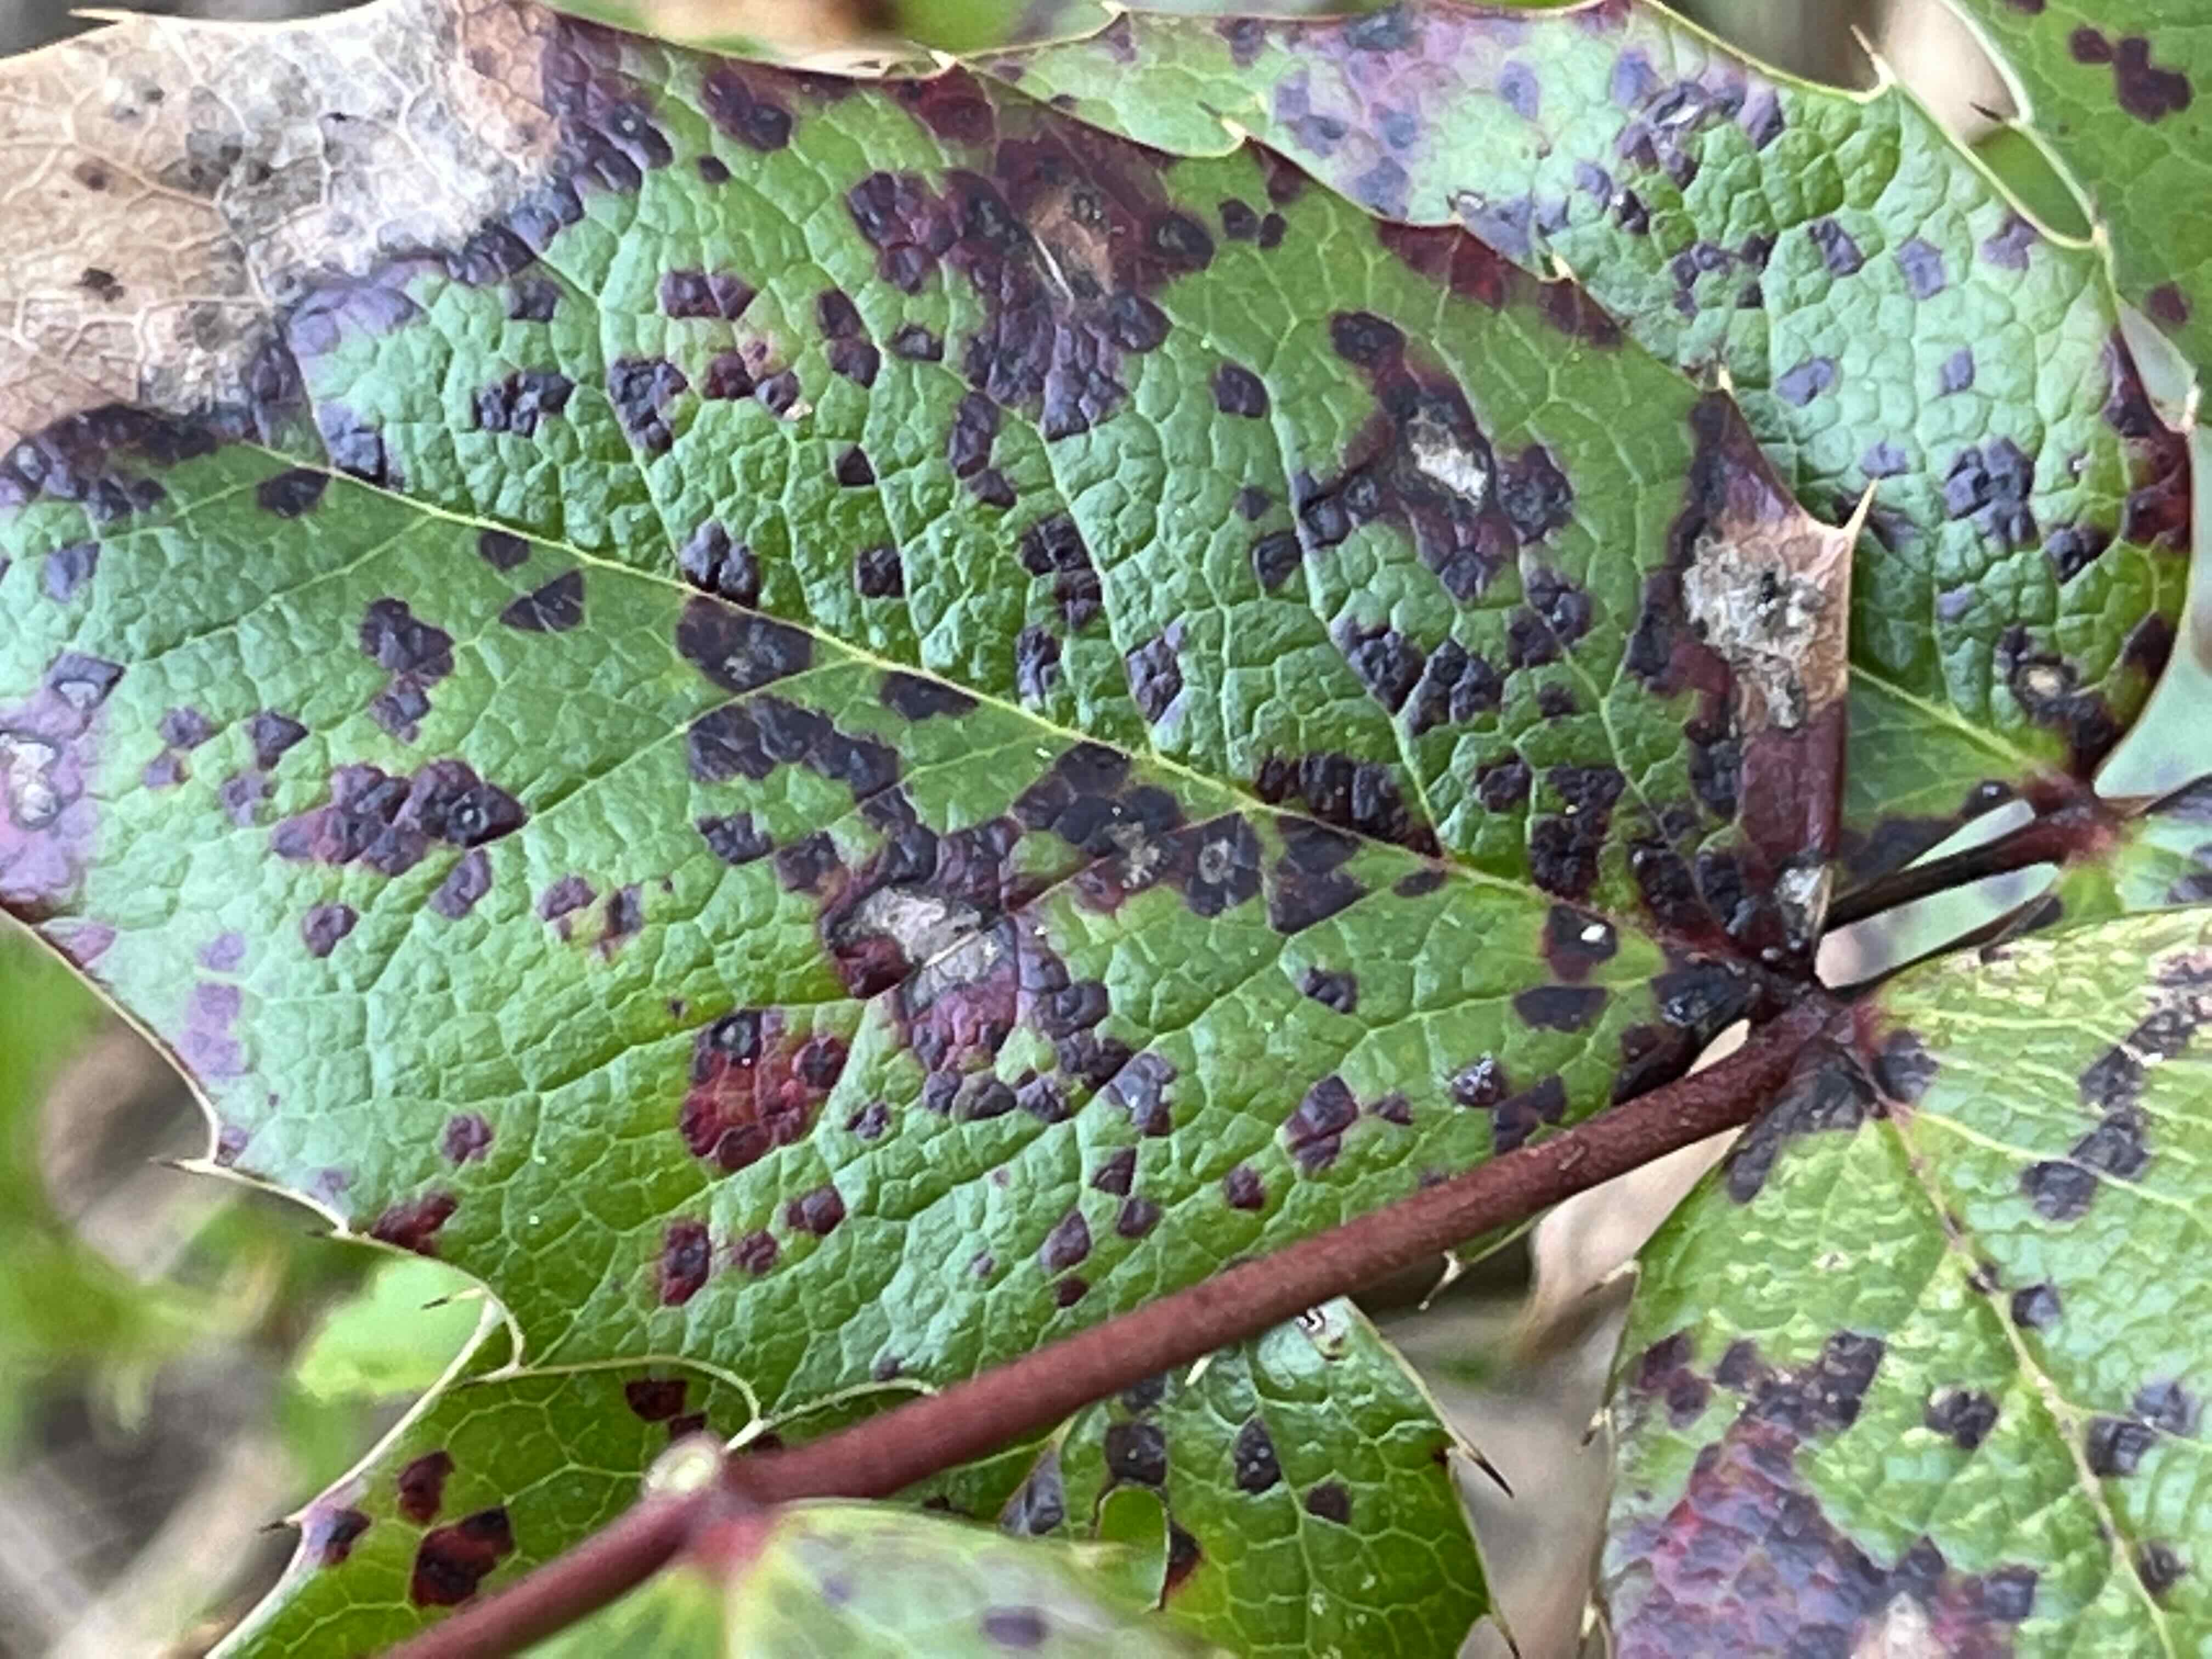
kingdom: Fungi
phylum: Basidiomycota
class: Pucciniomycetes
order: Pucciniales
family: Pucciniaceae
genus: Cumminsiella
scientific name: Cumminsiella mirabilissima
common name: mahonierust
